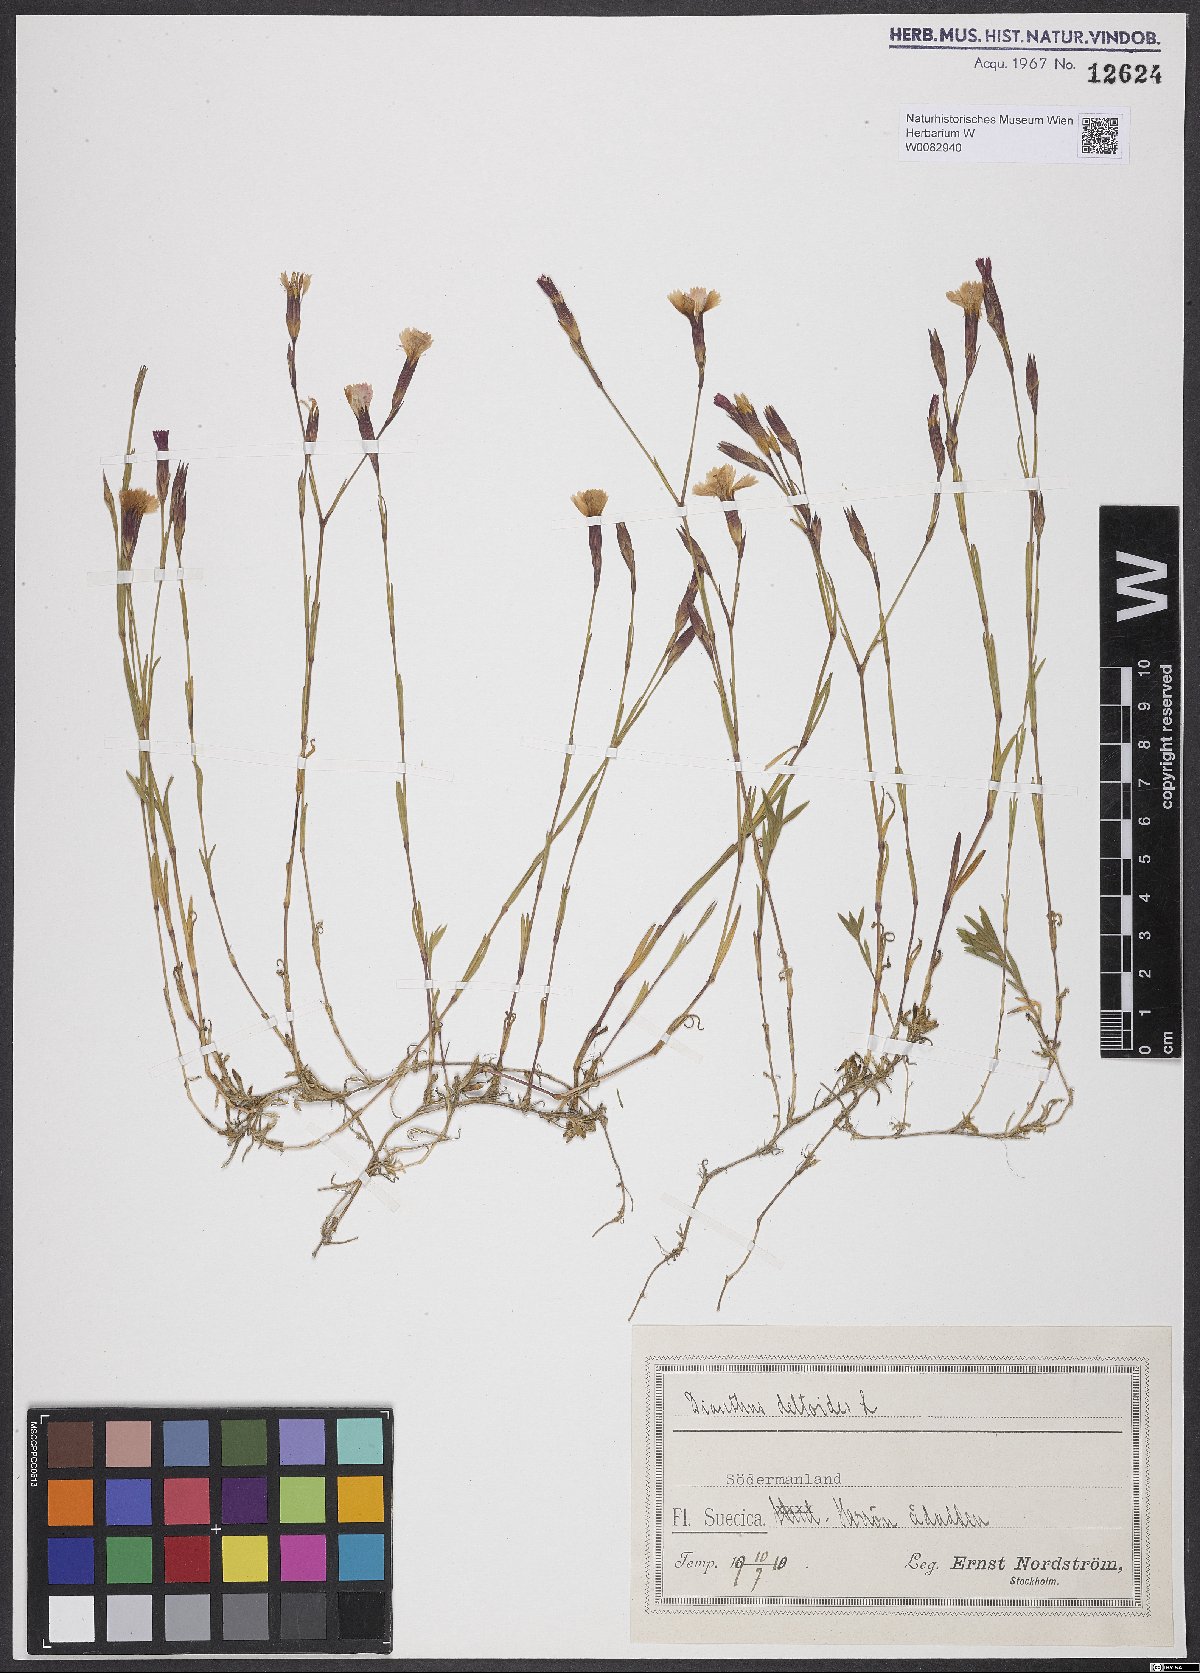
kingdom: Plantae
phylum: Tracheophyta
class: Magnoliopsida
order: Caryophyllales
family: Caryophyllaceae
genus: Dianthus
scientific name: Dianthus deltoides
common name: Maiden pink
